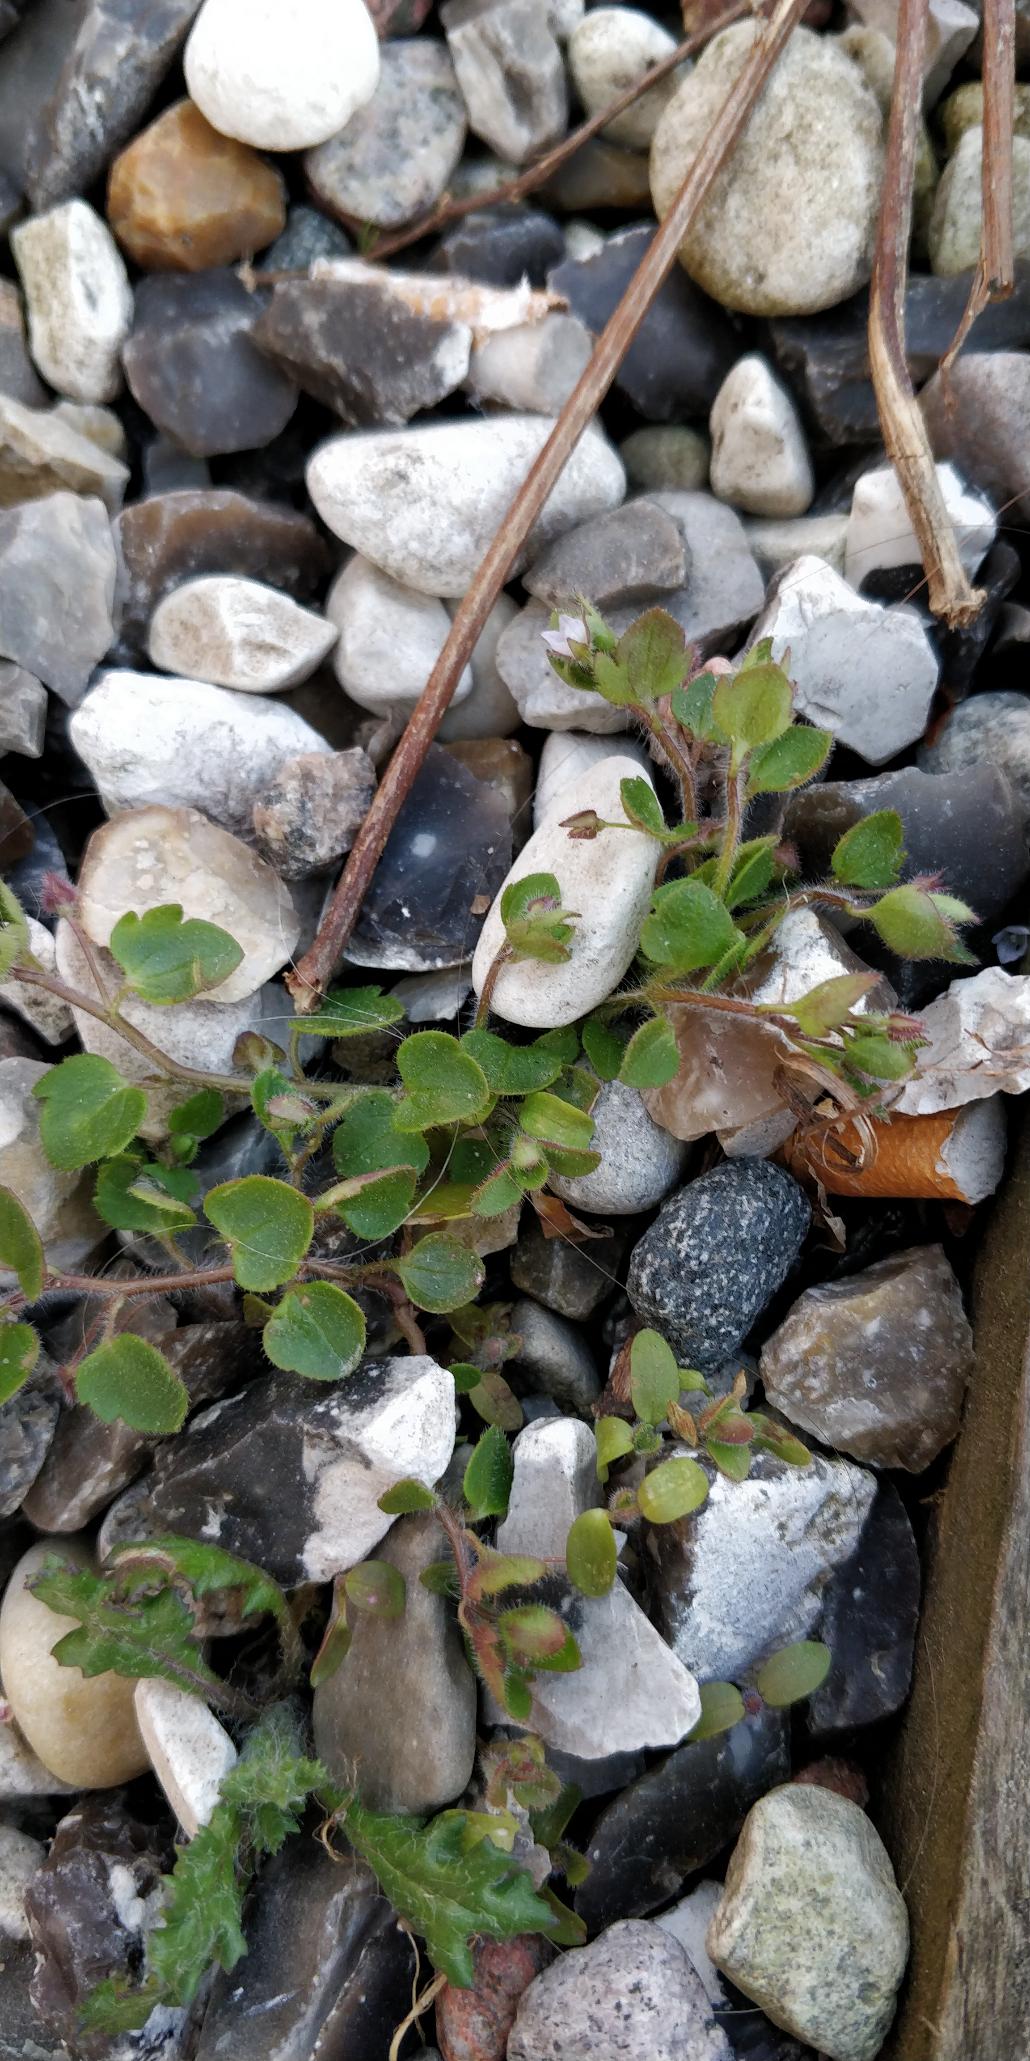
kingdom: Plantae
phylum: Tracheophyta
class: Magnoliopsida
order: Lamiales
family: Plantaginaceae
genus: Veronica
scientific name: Veronica sublobata
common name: Krat-ærenpris
